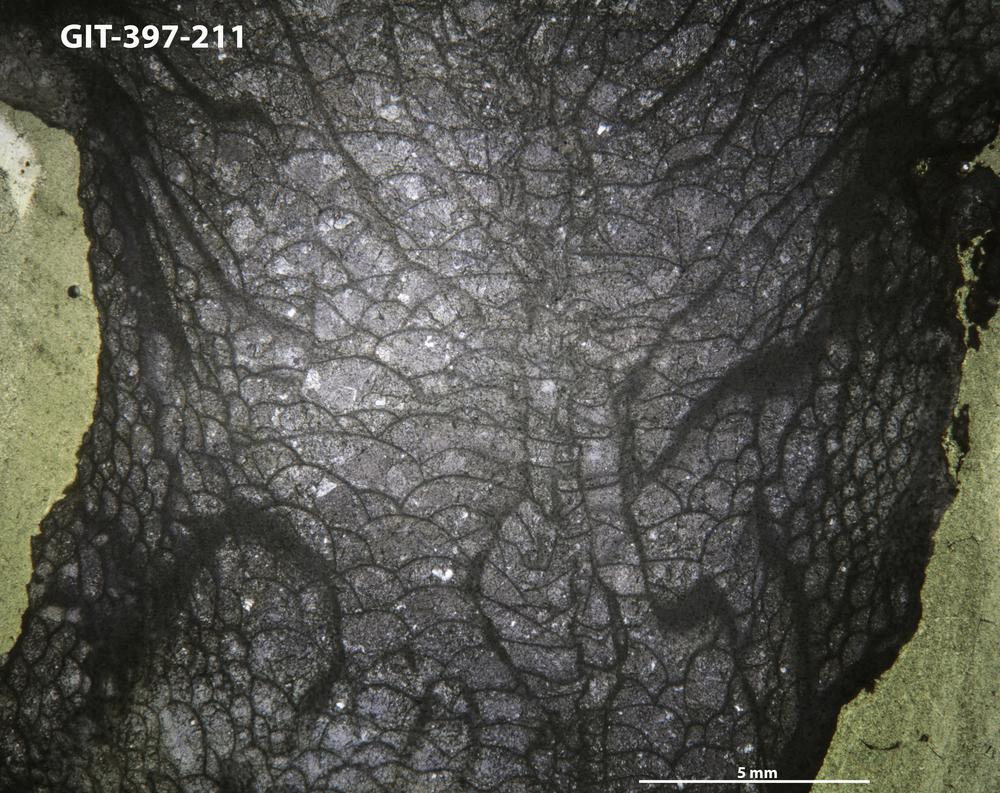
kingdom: Animalia
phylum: Cnidaria
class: Anthozoa
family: Lykophyllidae
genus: Neocystiphyllum
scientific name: Neocystiphyllum
